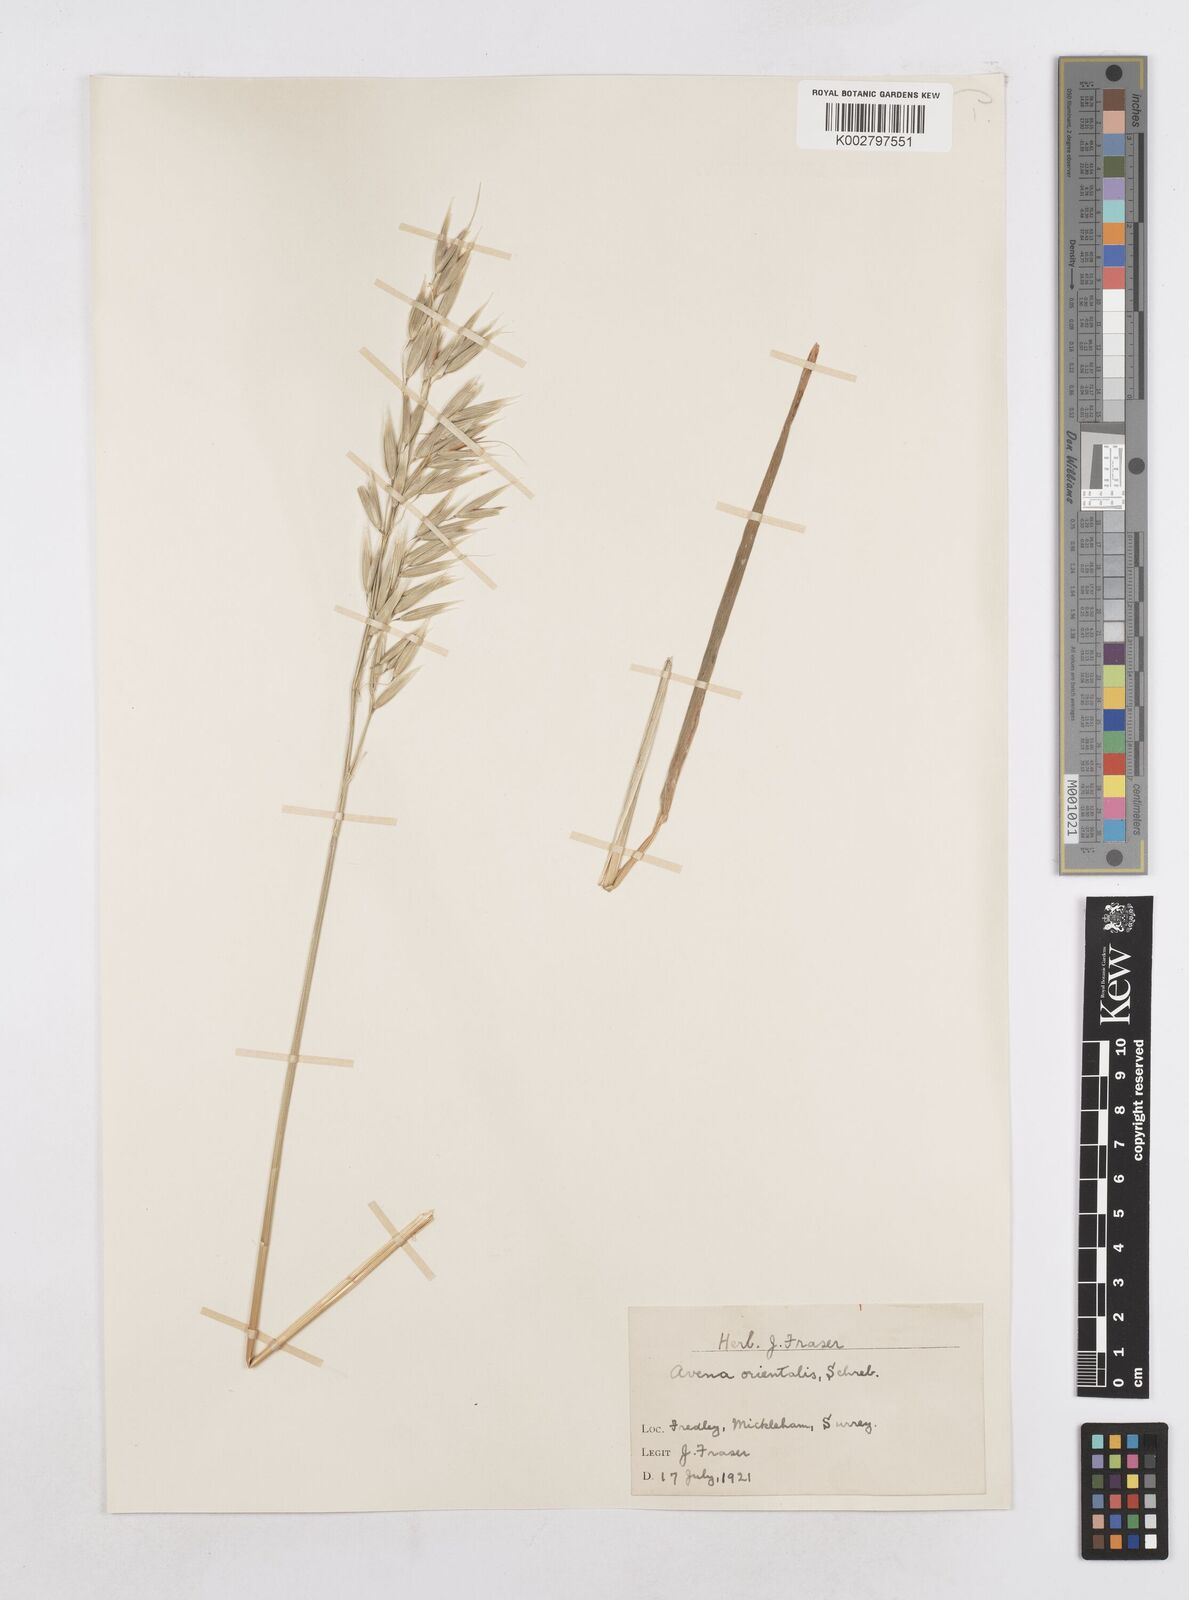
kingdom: Plantae
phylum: Tracheophyta
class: Liliopsida
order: Poales
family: Poaceae
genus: Avena
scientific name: Avena sativa
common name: Oat
